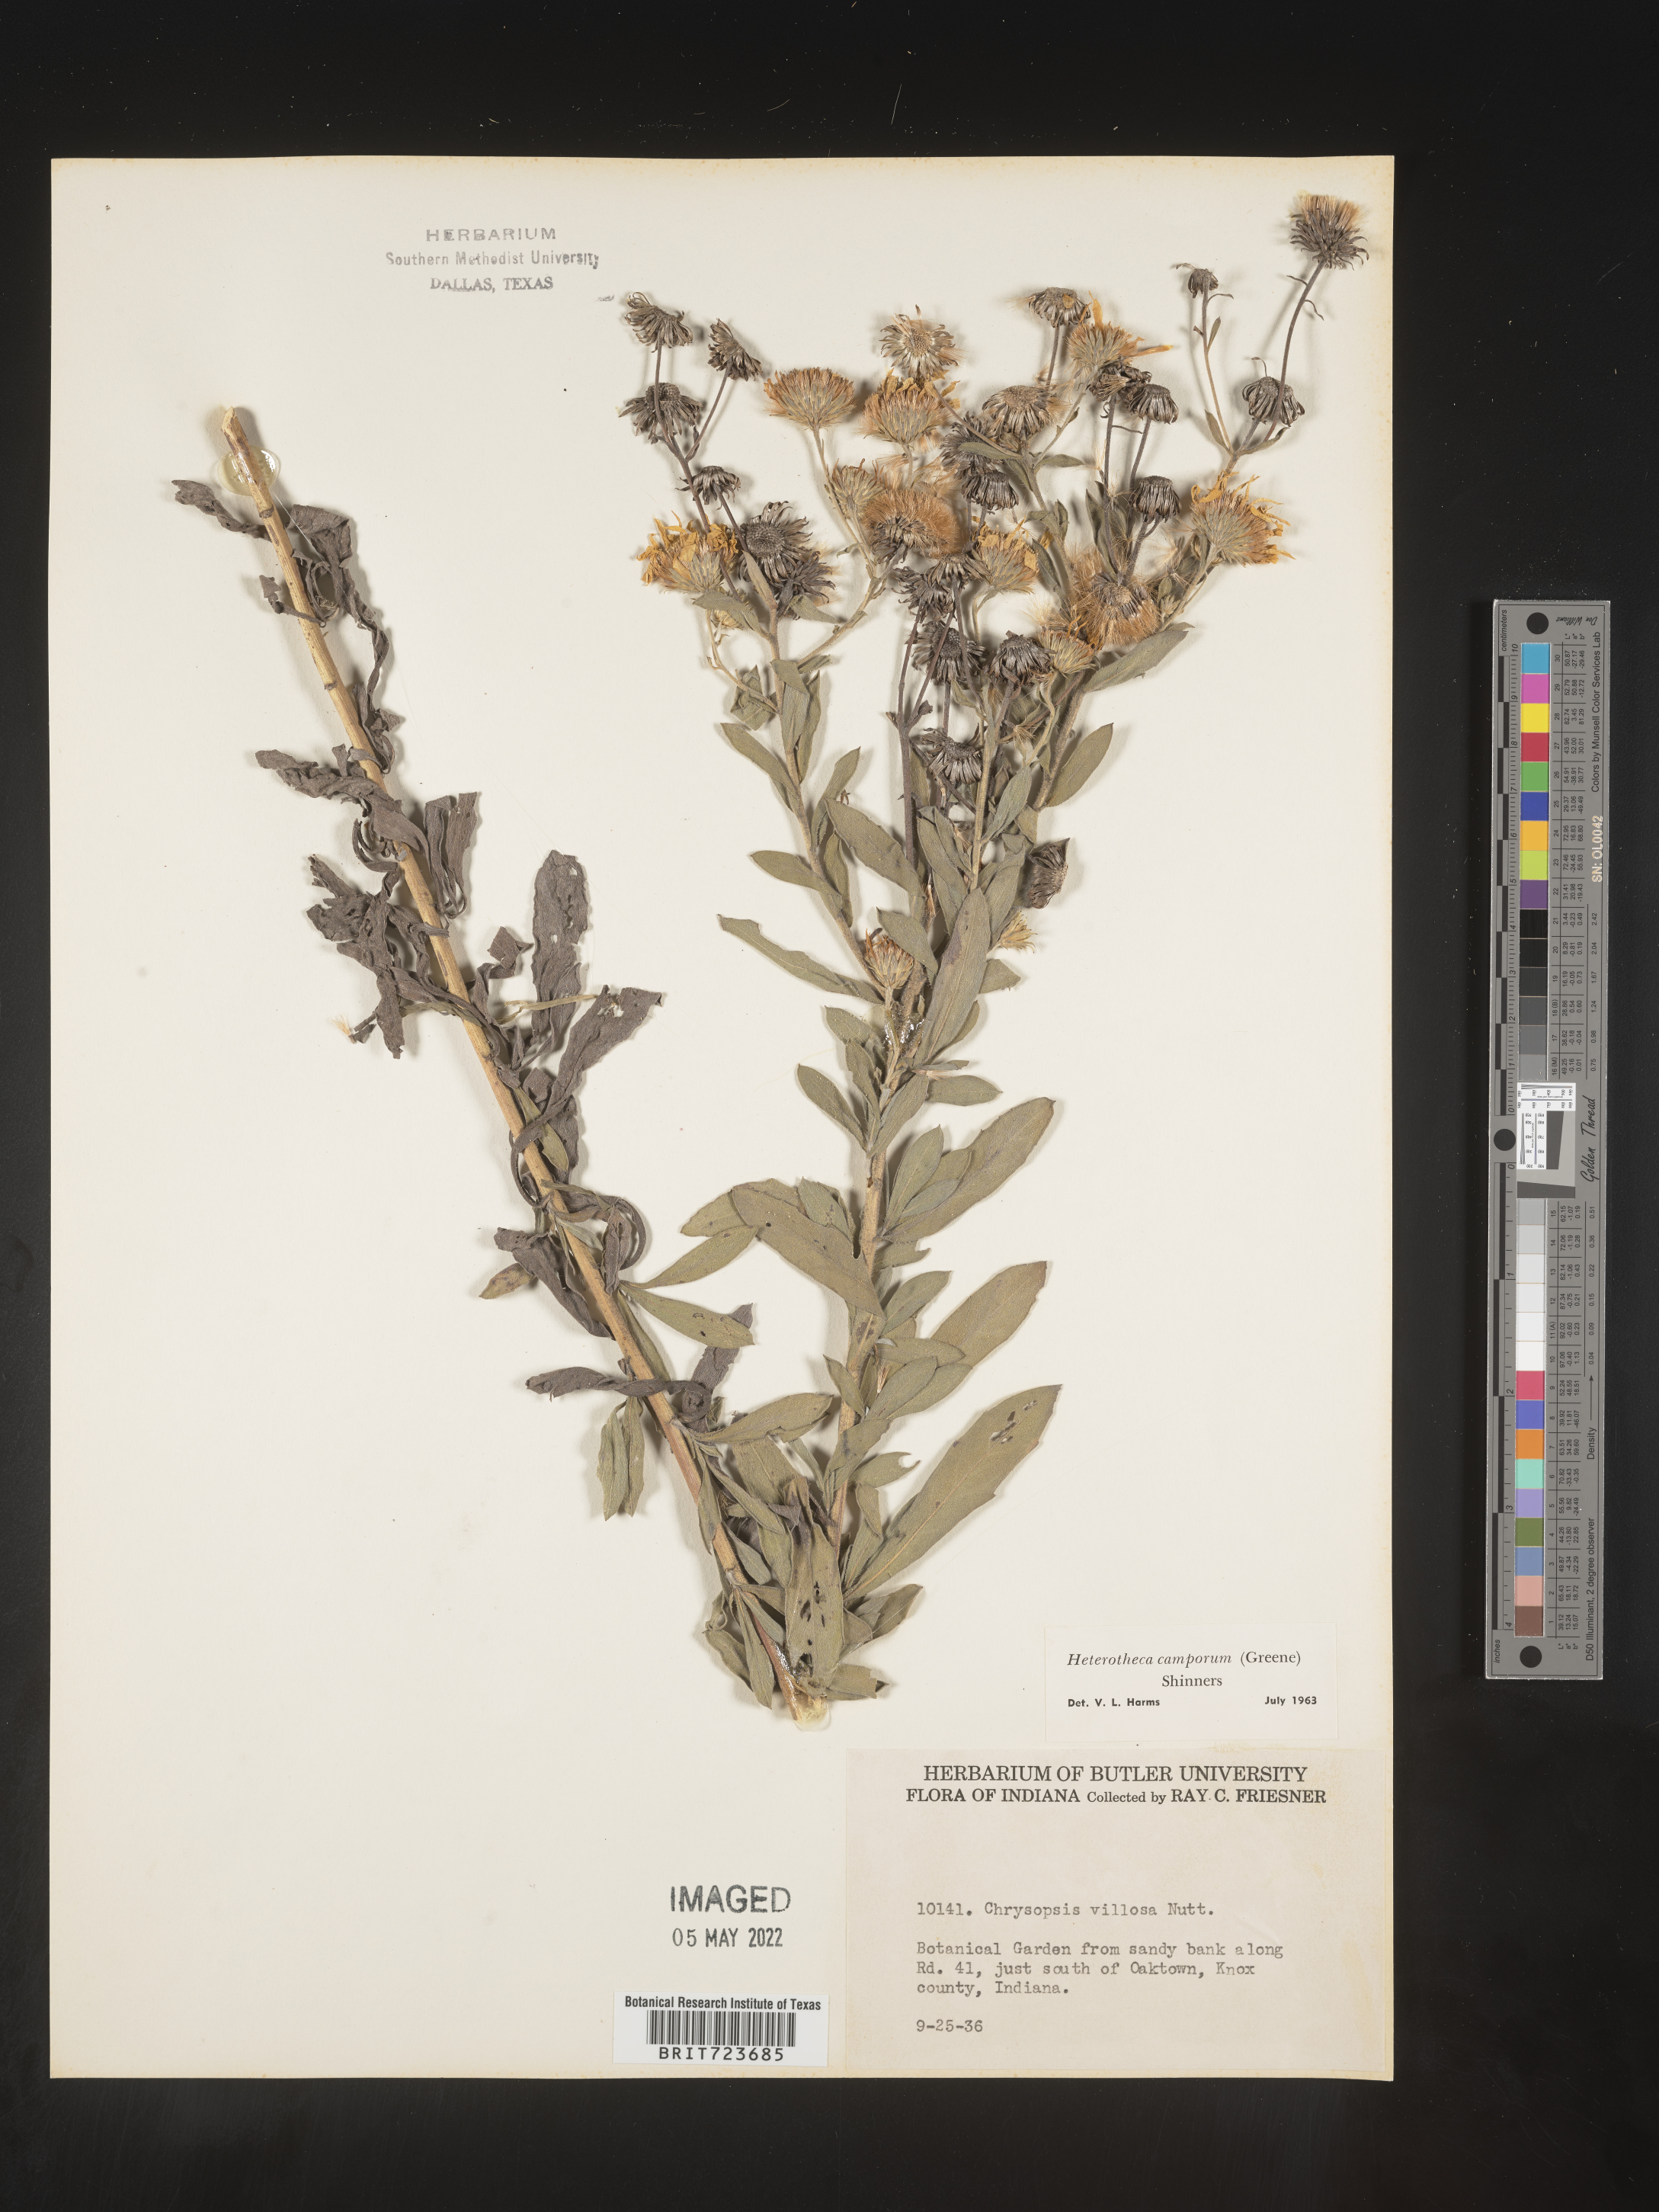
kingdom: Plantae
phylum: Tracheophyta
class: Magnoliopsida
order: Asterales
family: Asteraceae
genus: Heterotheca
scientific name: Heterotheca camporum
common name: Prairie golden-aster
